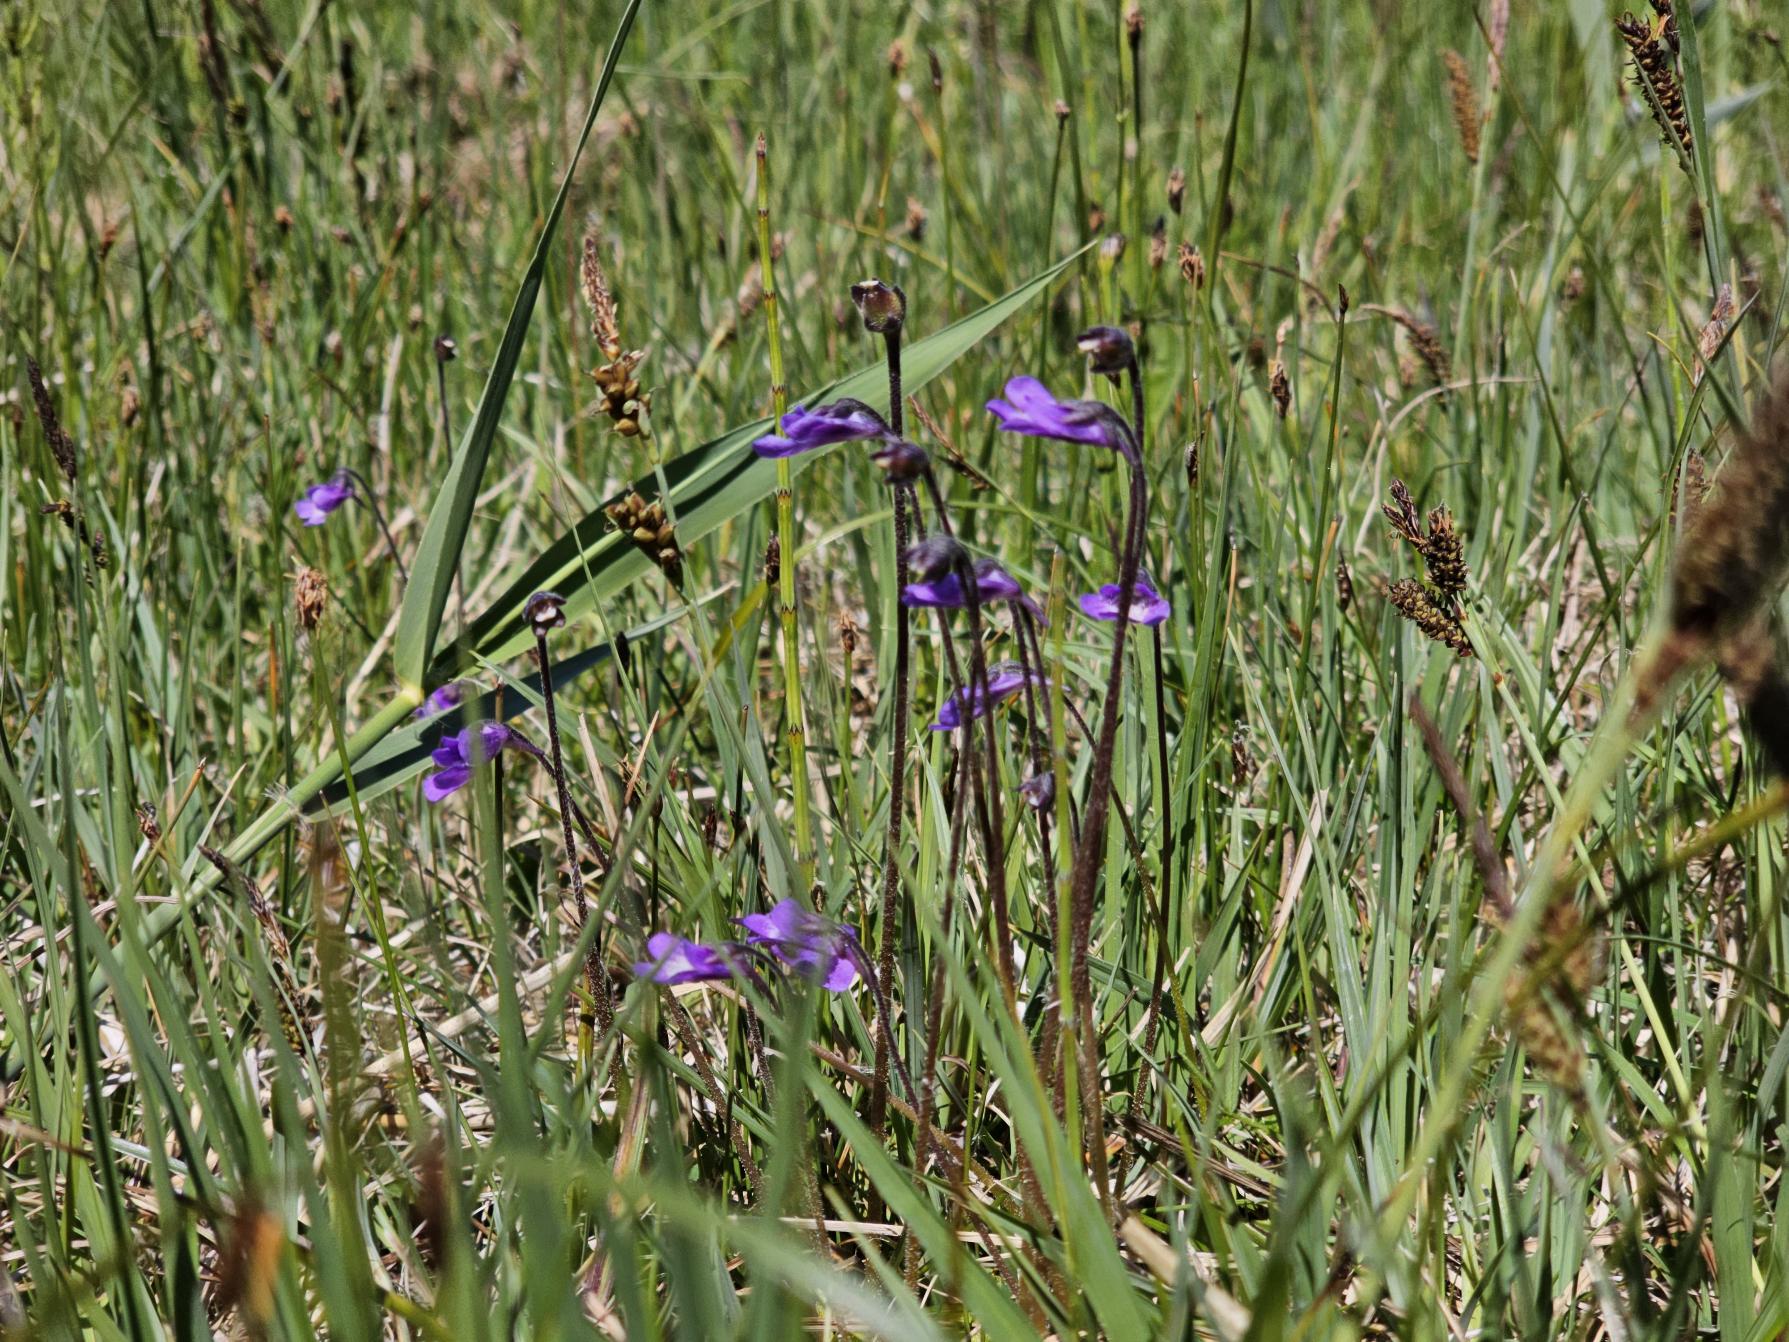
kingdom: Plantae
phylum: Tracheophyta
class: Magnoliopsida
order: Lamiales
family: Lentibulariaceae
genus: Pinguicula
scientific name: Pinguicula vulgaris
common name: Vibefedt
